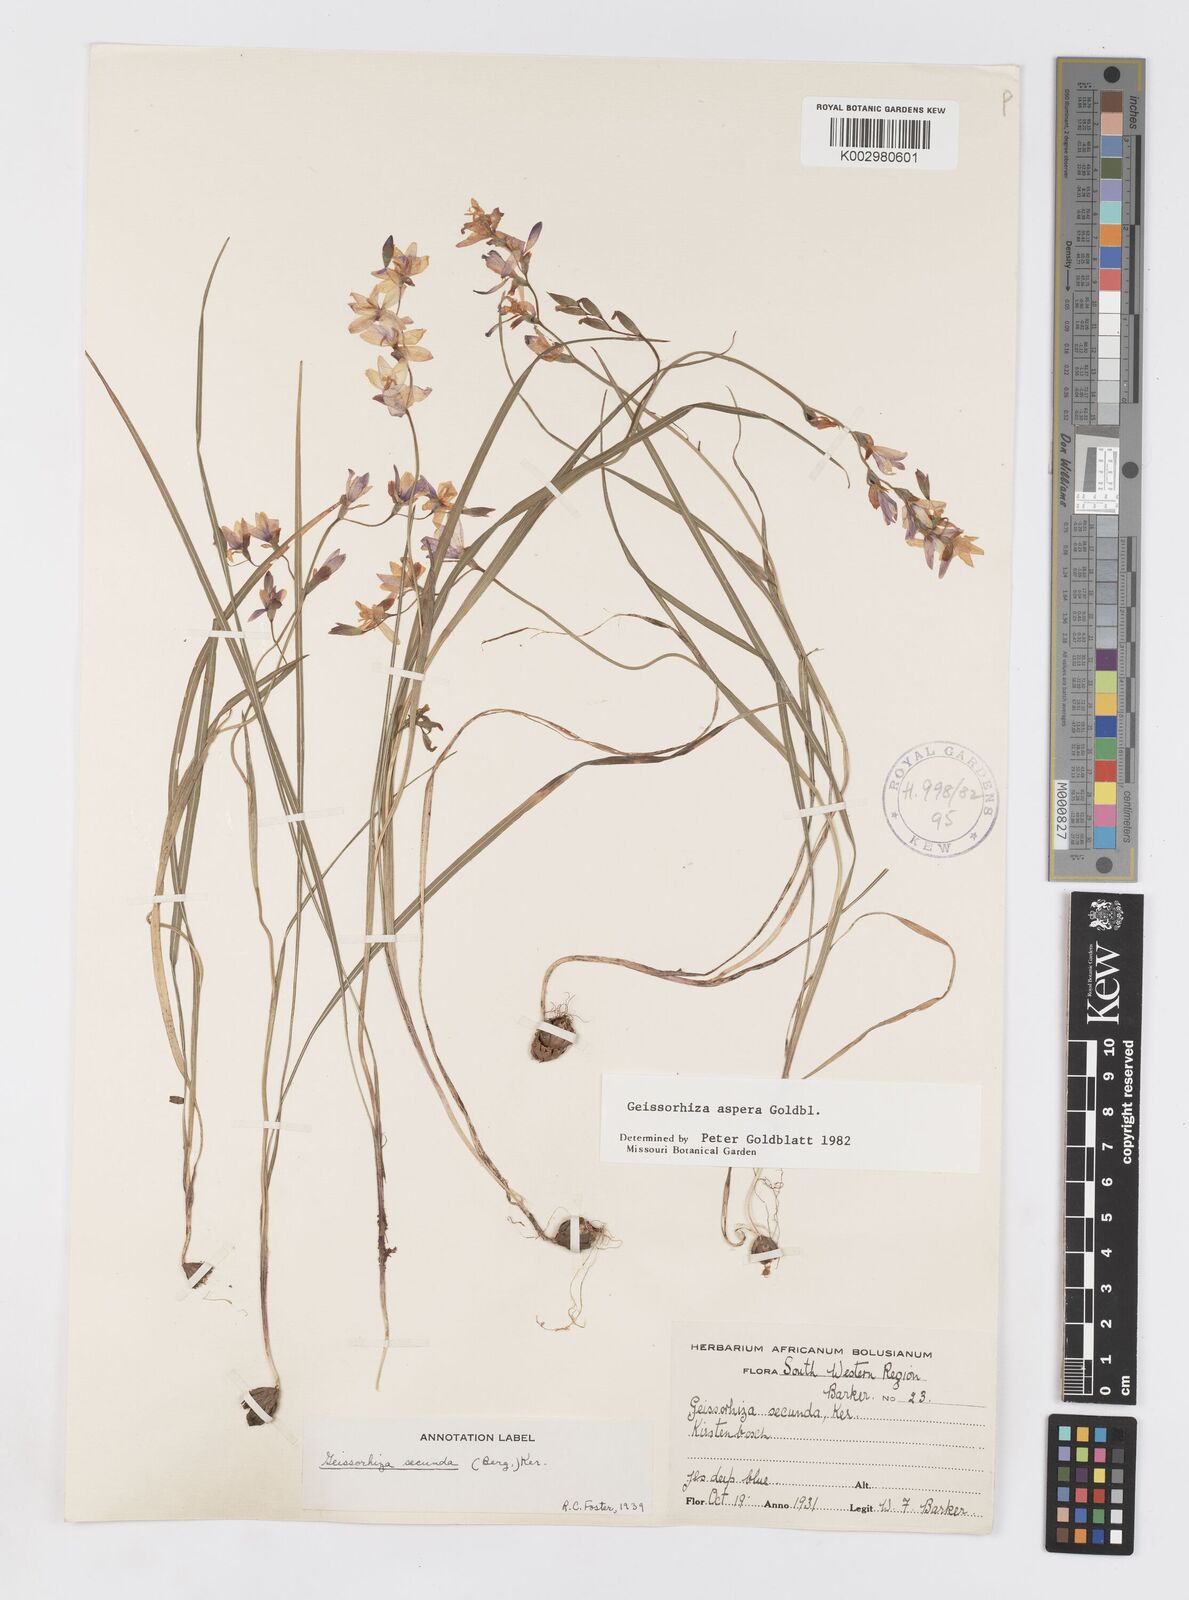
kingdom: Plantae
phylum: Tracheophyta
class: Liliopsida
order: Asparagales
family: Iridaceae
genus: Geissorhiza
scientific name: Geissorhiza aspera
